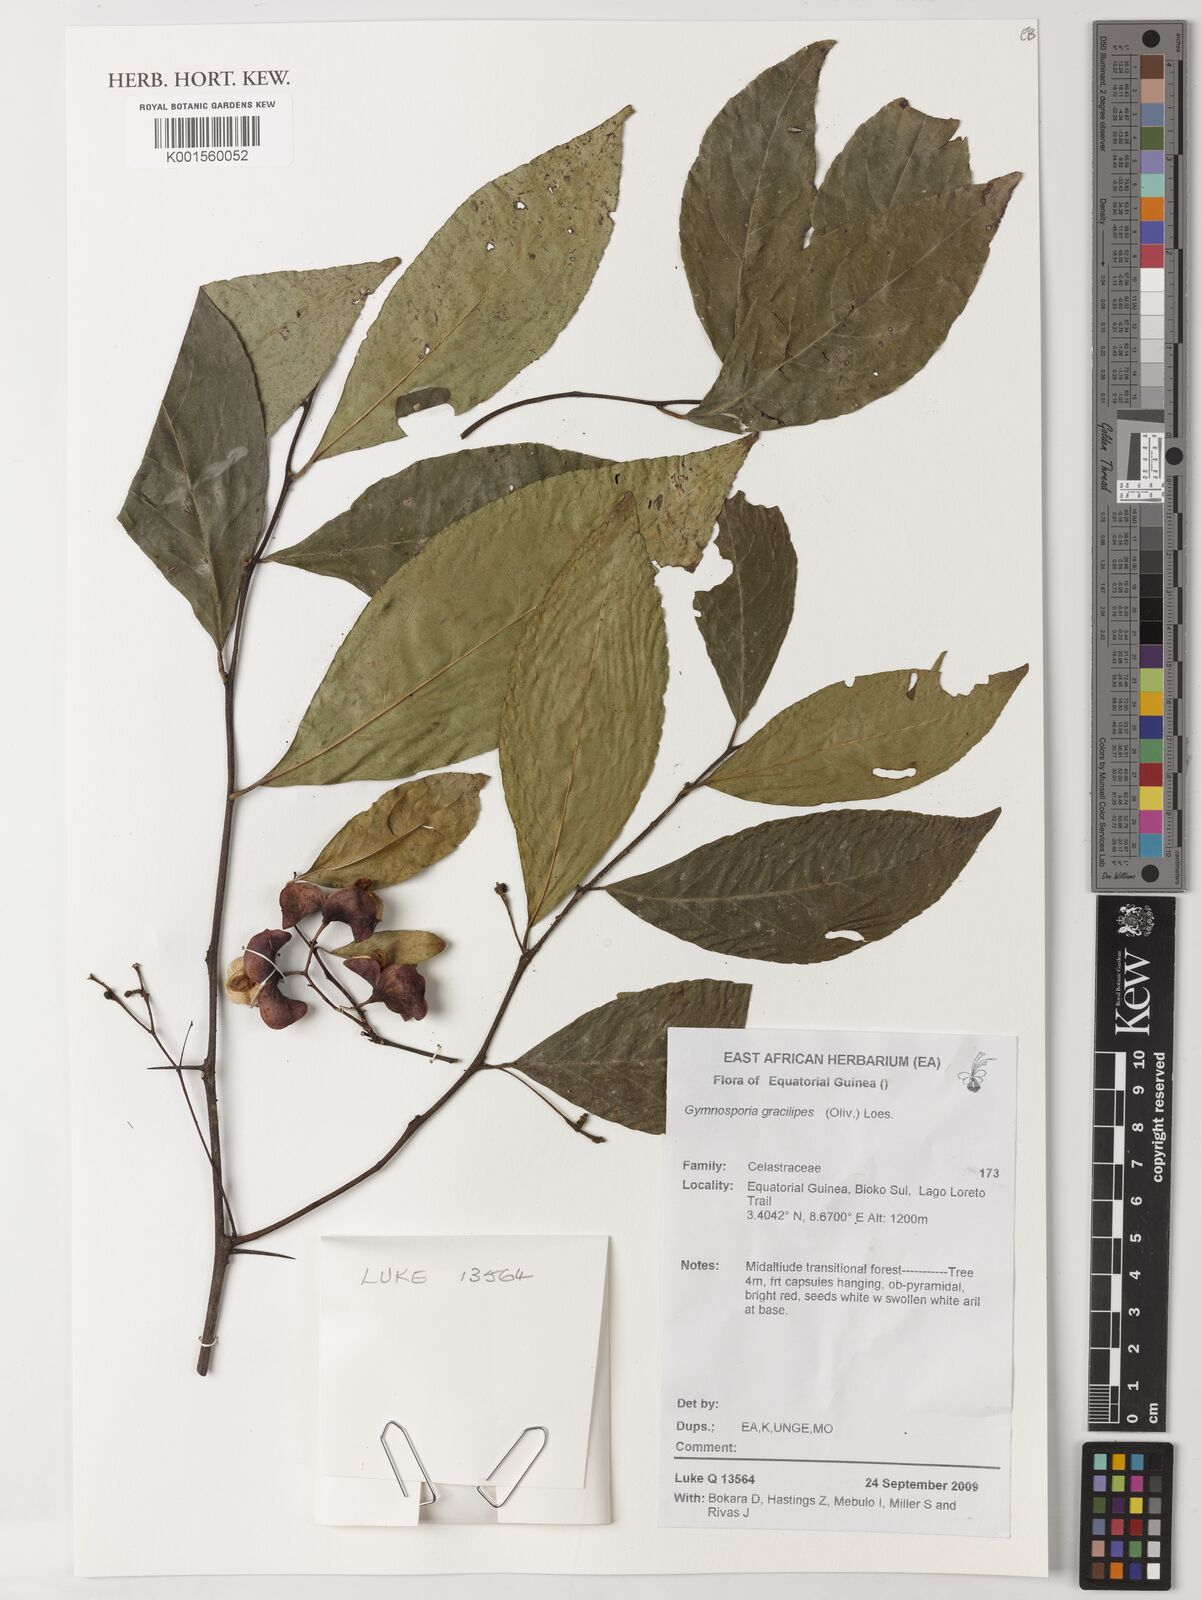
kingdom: Plantae
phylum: Tracheophyta
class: Magnoliopsida
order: Celastrales
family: Celastraceae
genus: Gymnosporia
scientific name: Gymnosporia gracilipes
